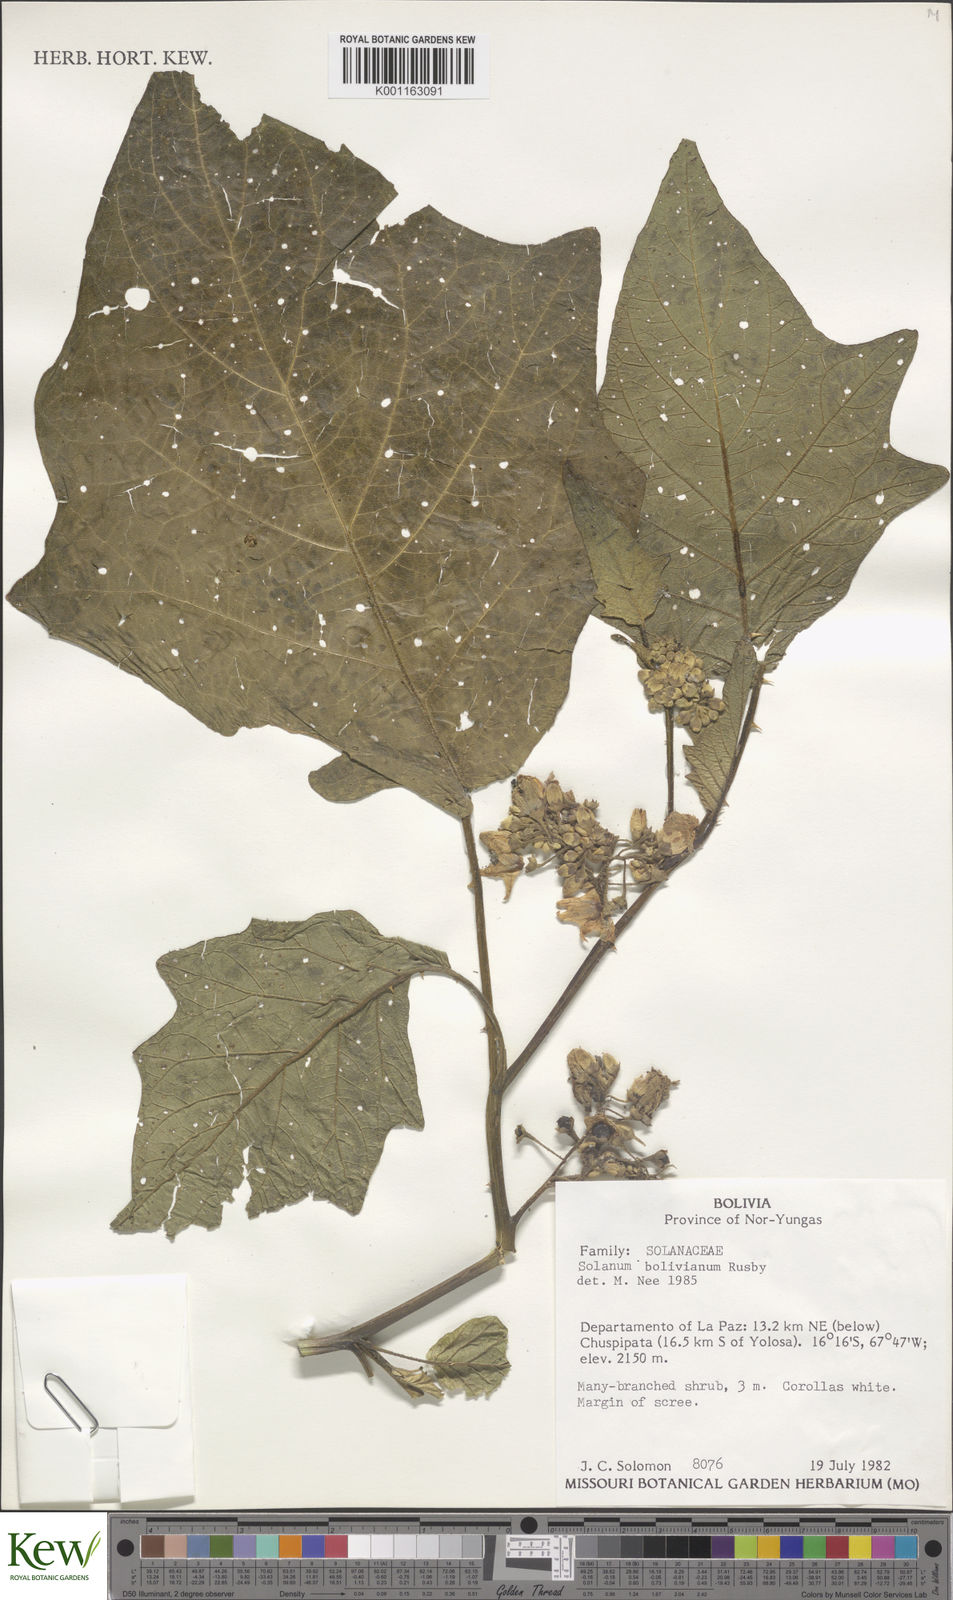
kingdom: Plantae
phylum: Tracheophyta
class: Magnoliopsida
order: Solanales
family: Solanaceae
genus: Solanum
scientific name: Solanum bolivianum
